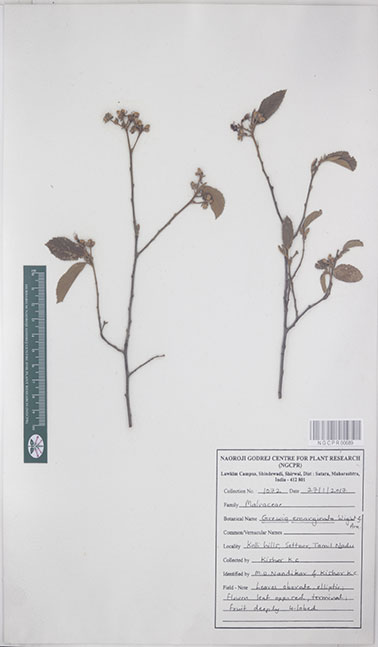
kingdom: Plantae
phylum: Tracheophyta
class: Magnoliopsida
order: Malvales
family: Malvaceae
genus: Grewia
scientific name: Grewia oppositifolia
